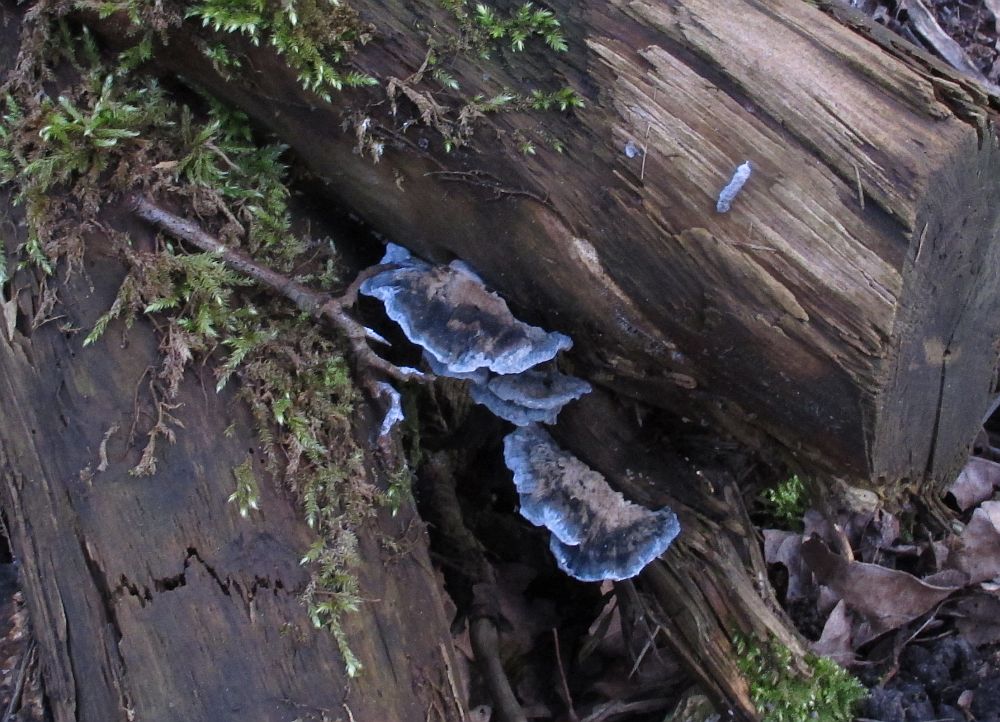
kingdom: Fungi
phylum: Basidiomycota
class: Agaricomycetes
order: Polyporales
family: Polyporaceae
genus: Cyanosporus
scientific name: Cyanosporus caesius
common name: blålig kødporesvamp
